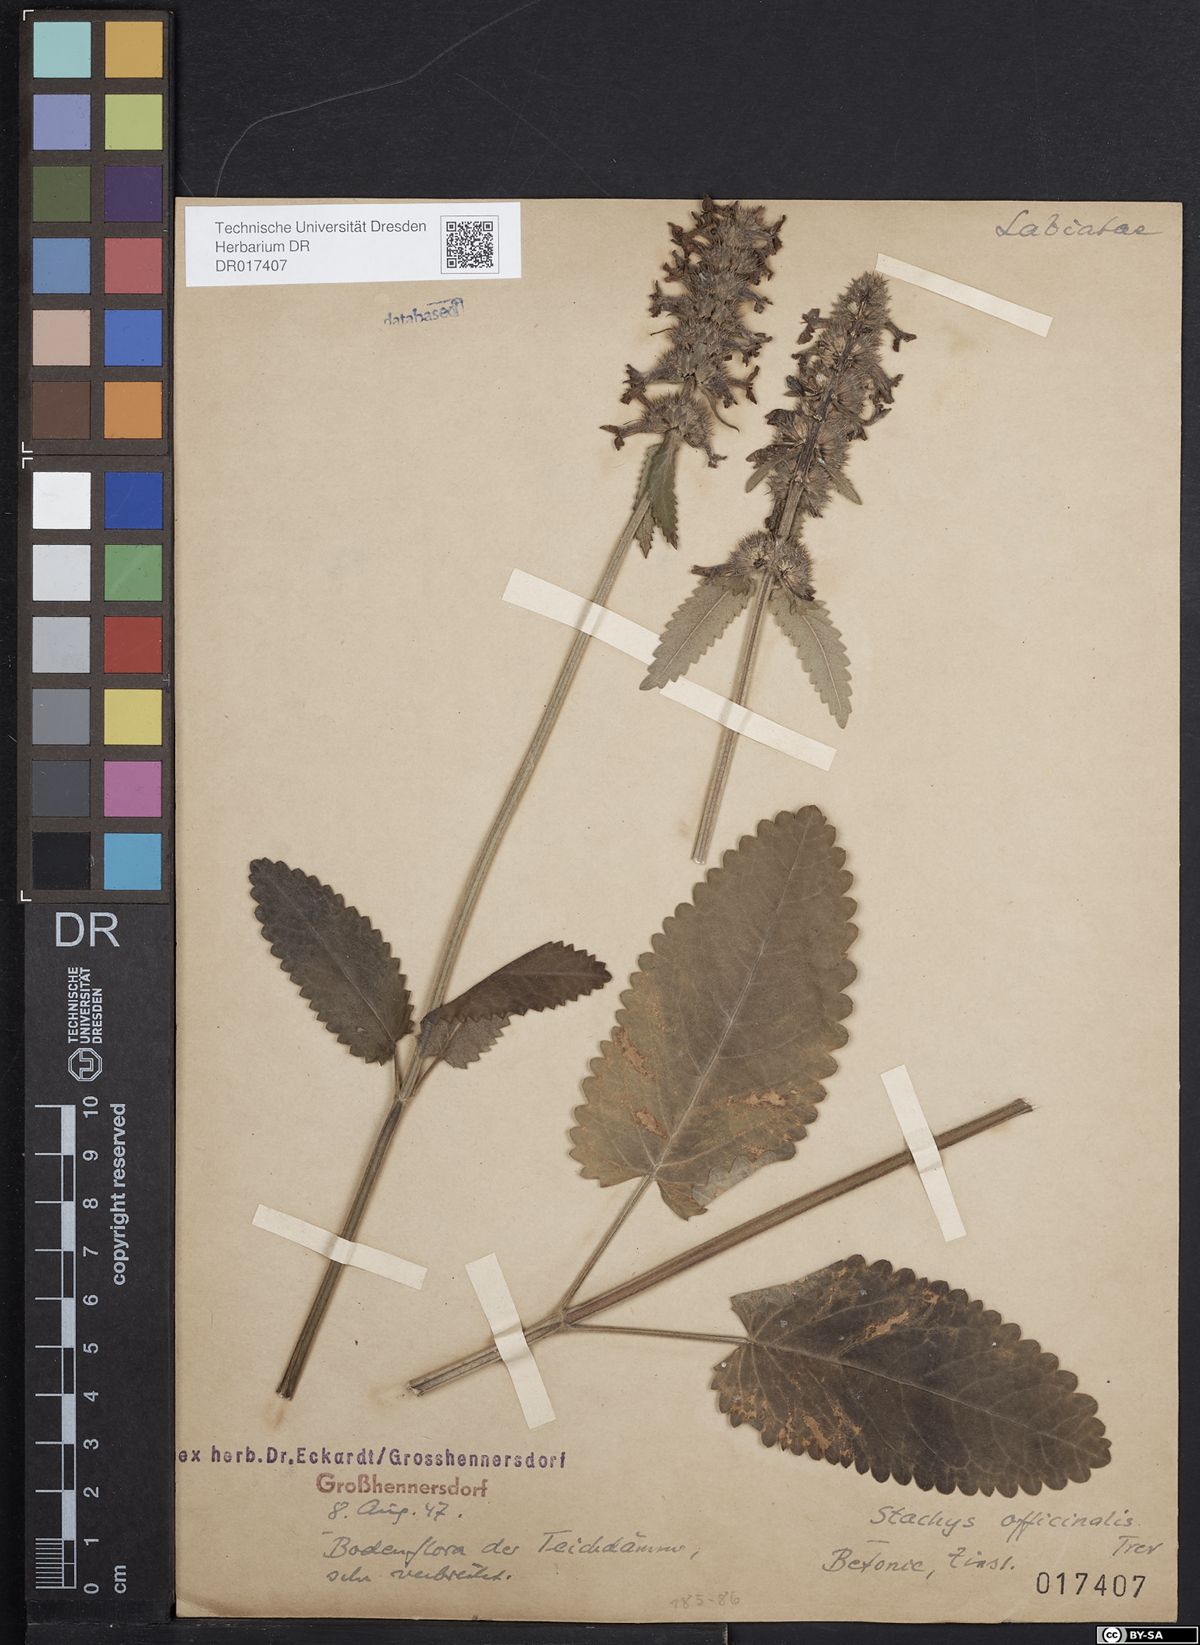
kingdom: Plantae
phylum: Tracheophyta
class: Magnoliopsida
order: Lamiales
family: Lamiaceae
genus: Betonica
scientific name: Betonica officinalis
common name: Bishop's-wort
